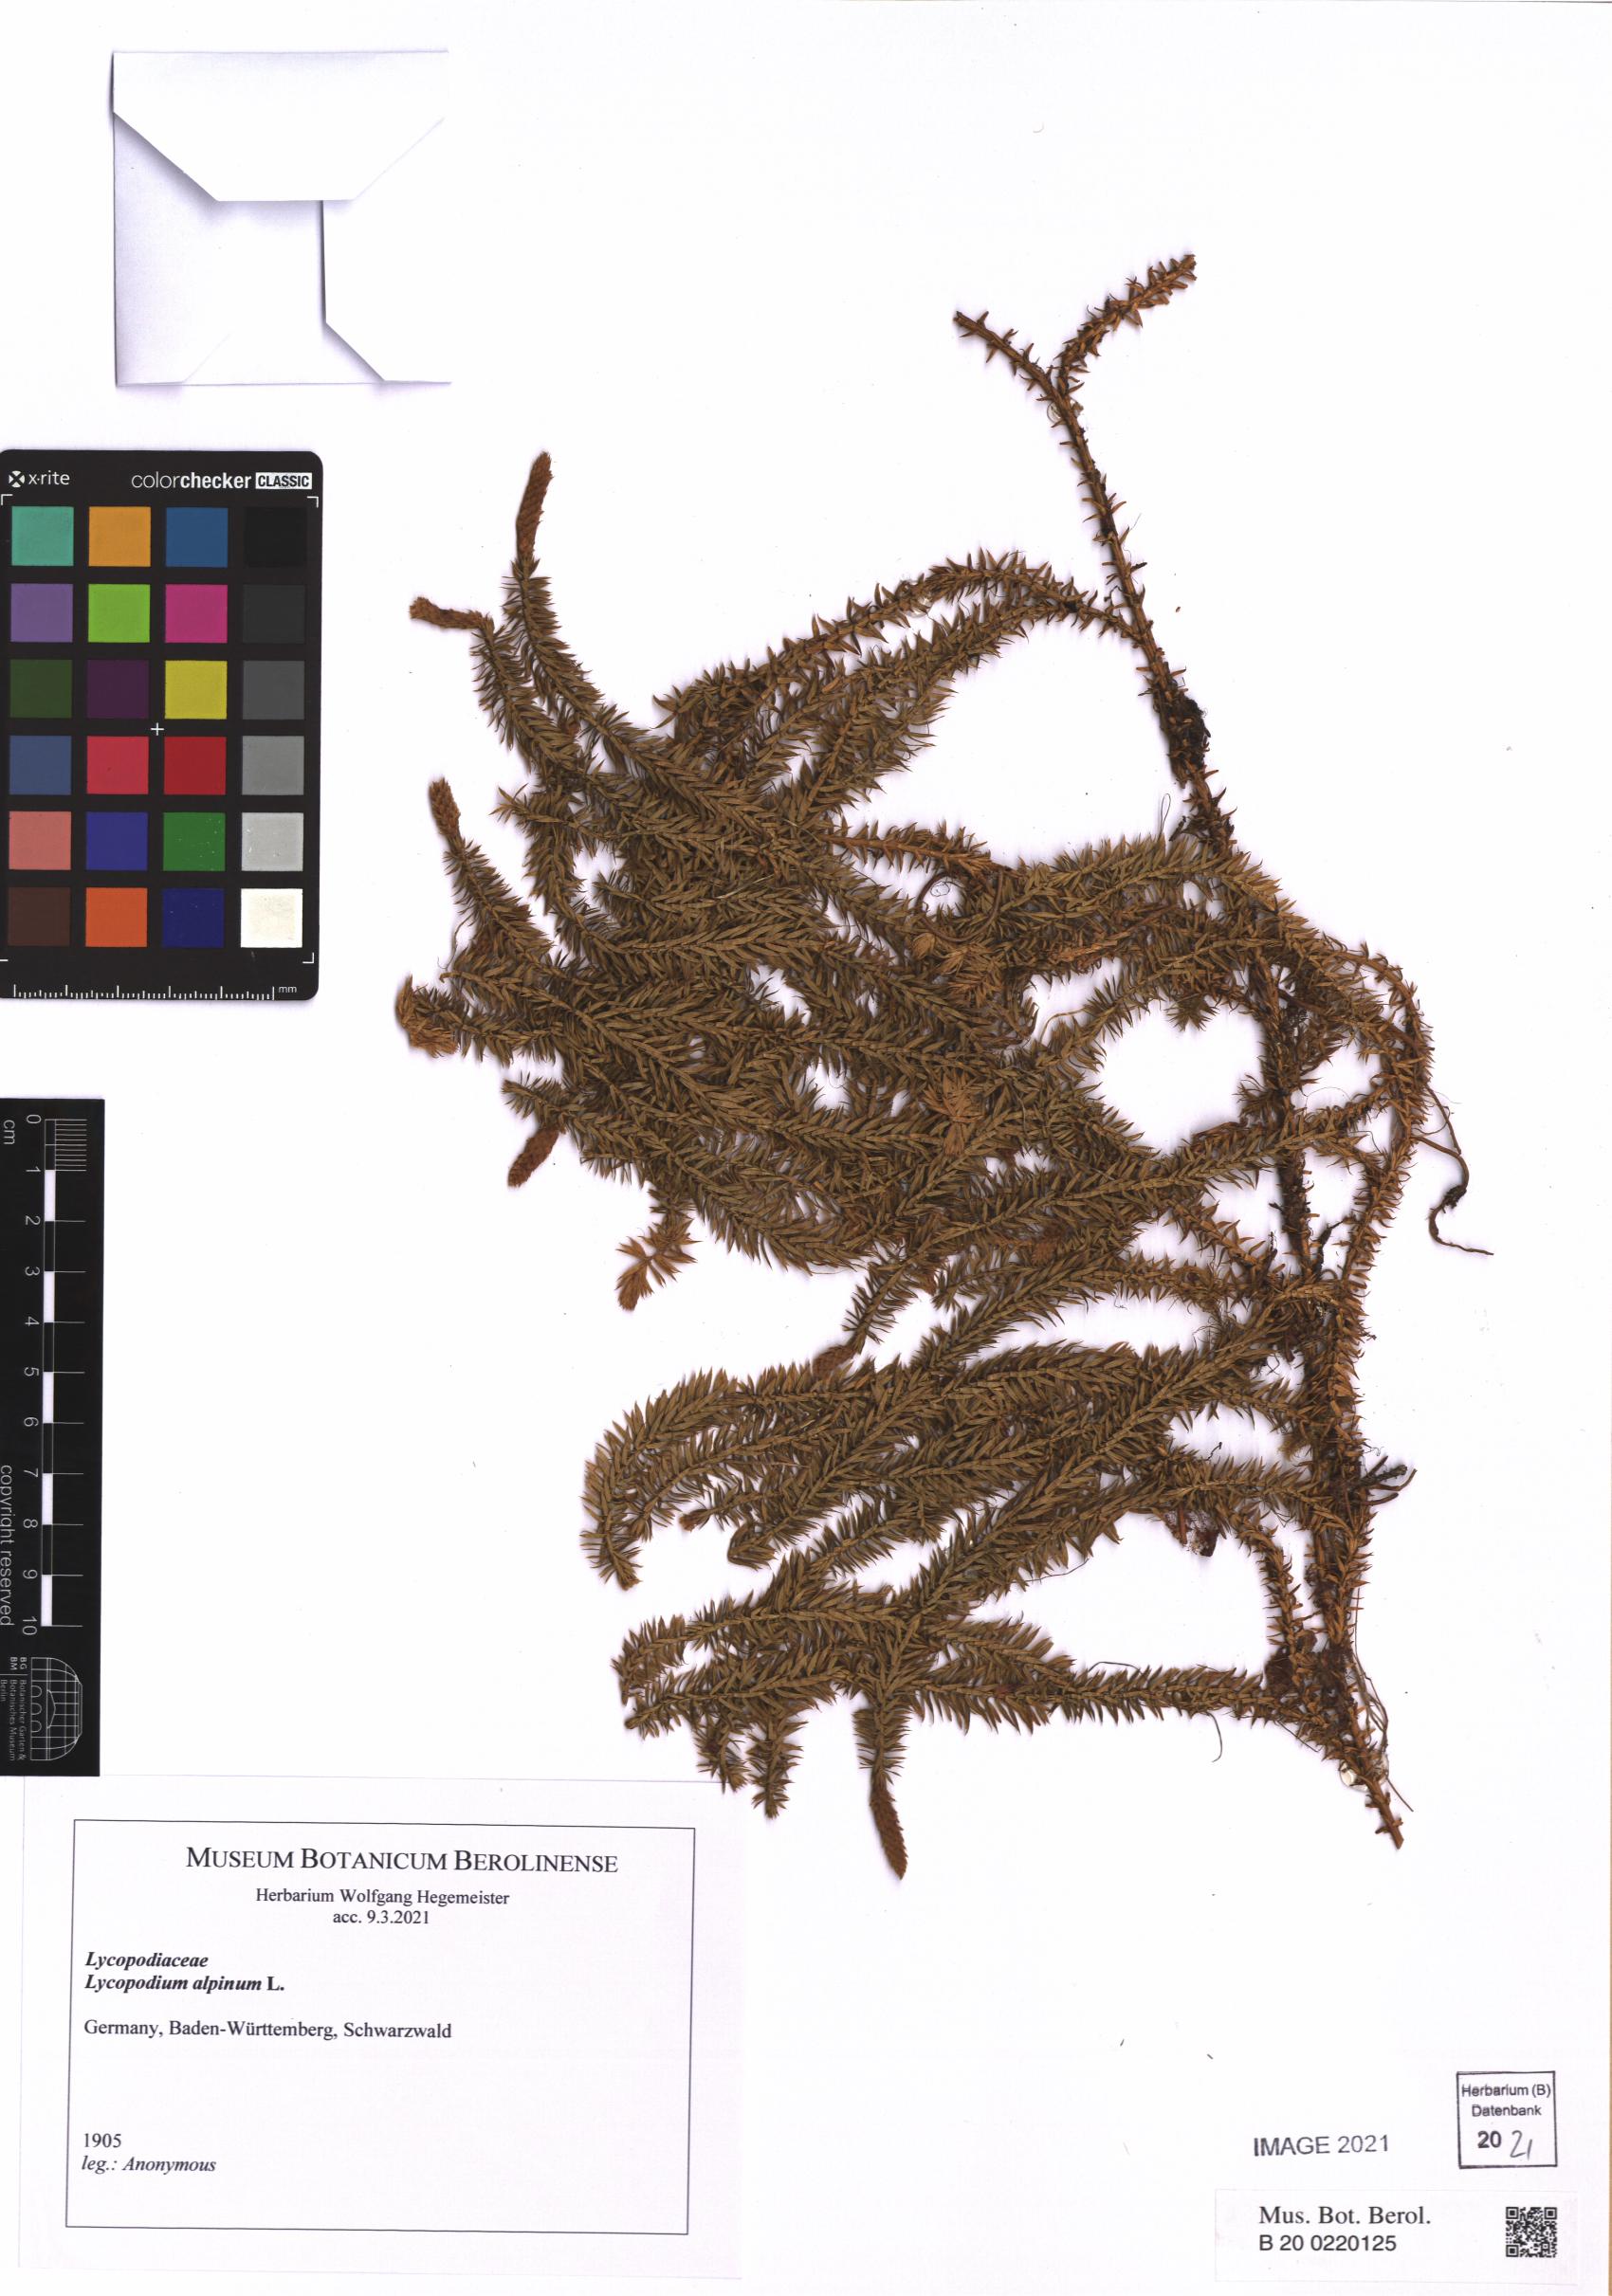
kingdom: Plantae
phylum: Tracheophyta
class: Lycopodiopsida
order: Lycopodiales
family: Lycopodiaceae
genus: Diphasiastrum
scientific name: Diphasiastrum alpinum
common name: Alpine clubmoss
